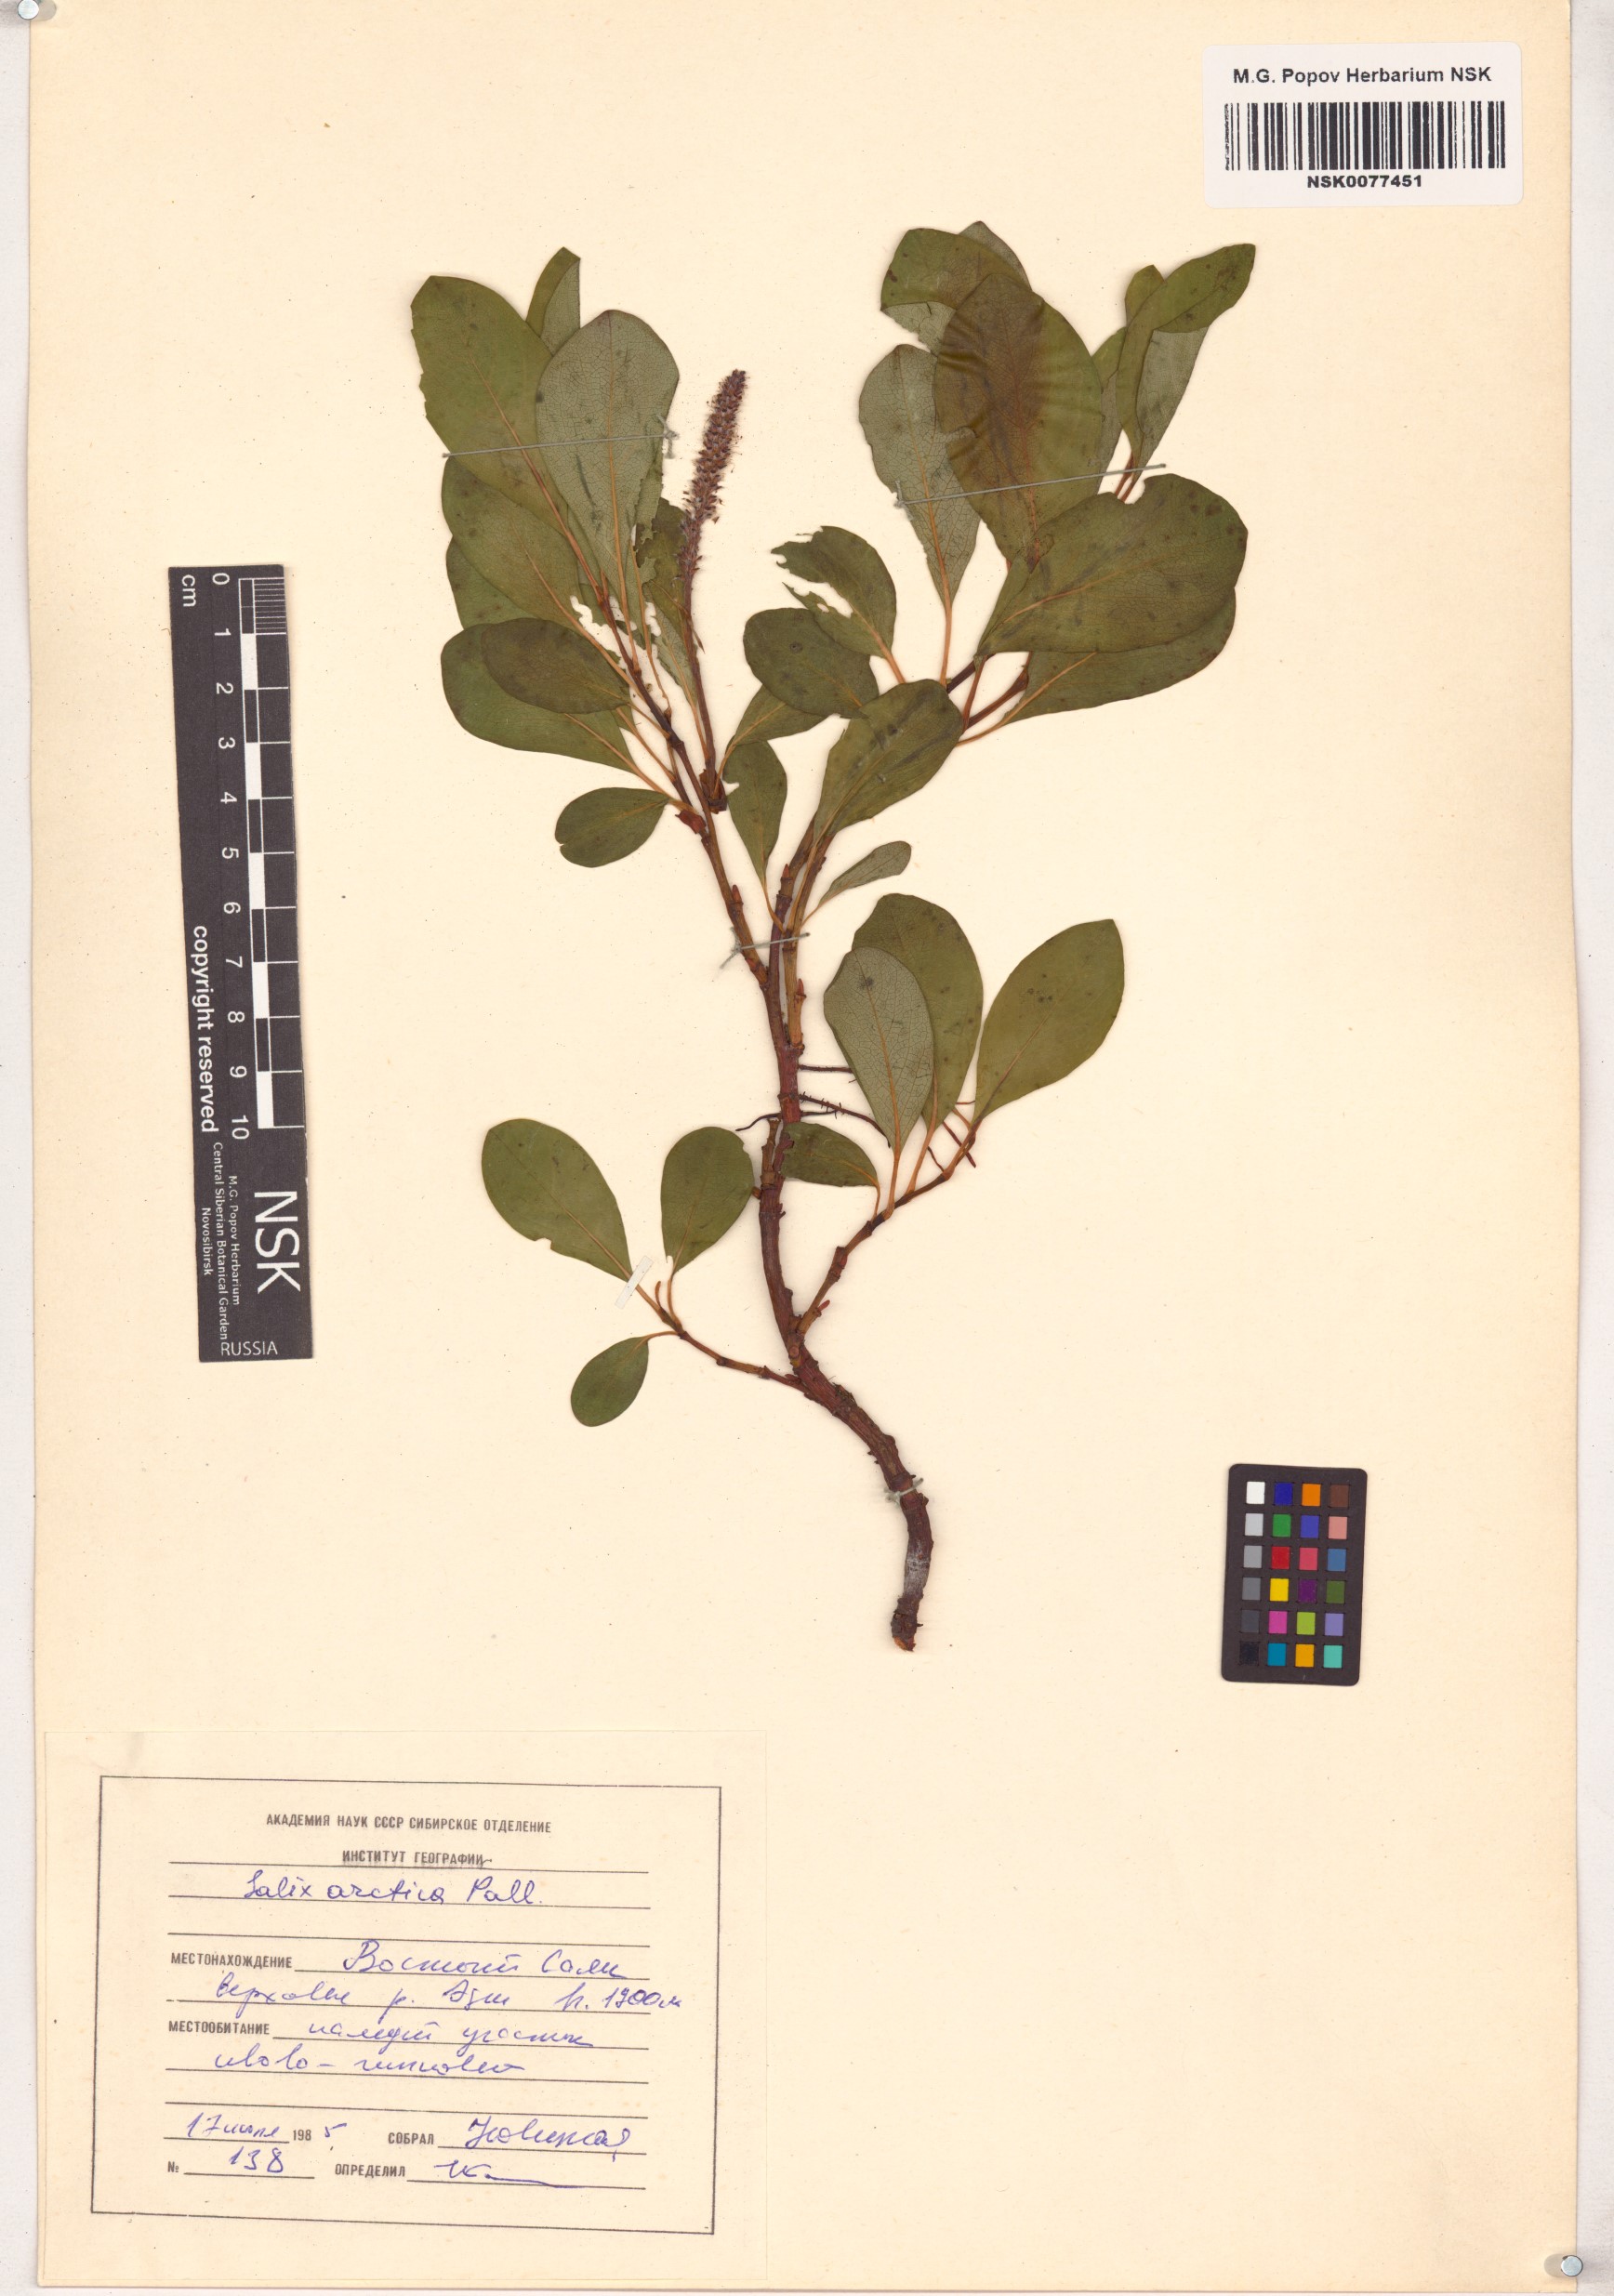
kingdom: Plantae
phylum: Tracheophyta
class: Magnoliopsida
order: Malpighiales
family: Salicaceae
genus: Salix
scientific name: Salix arctica
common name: Arctic willow
